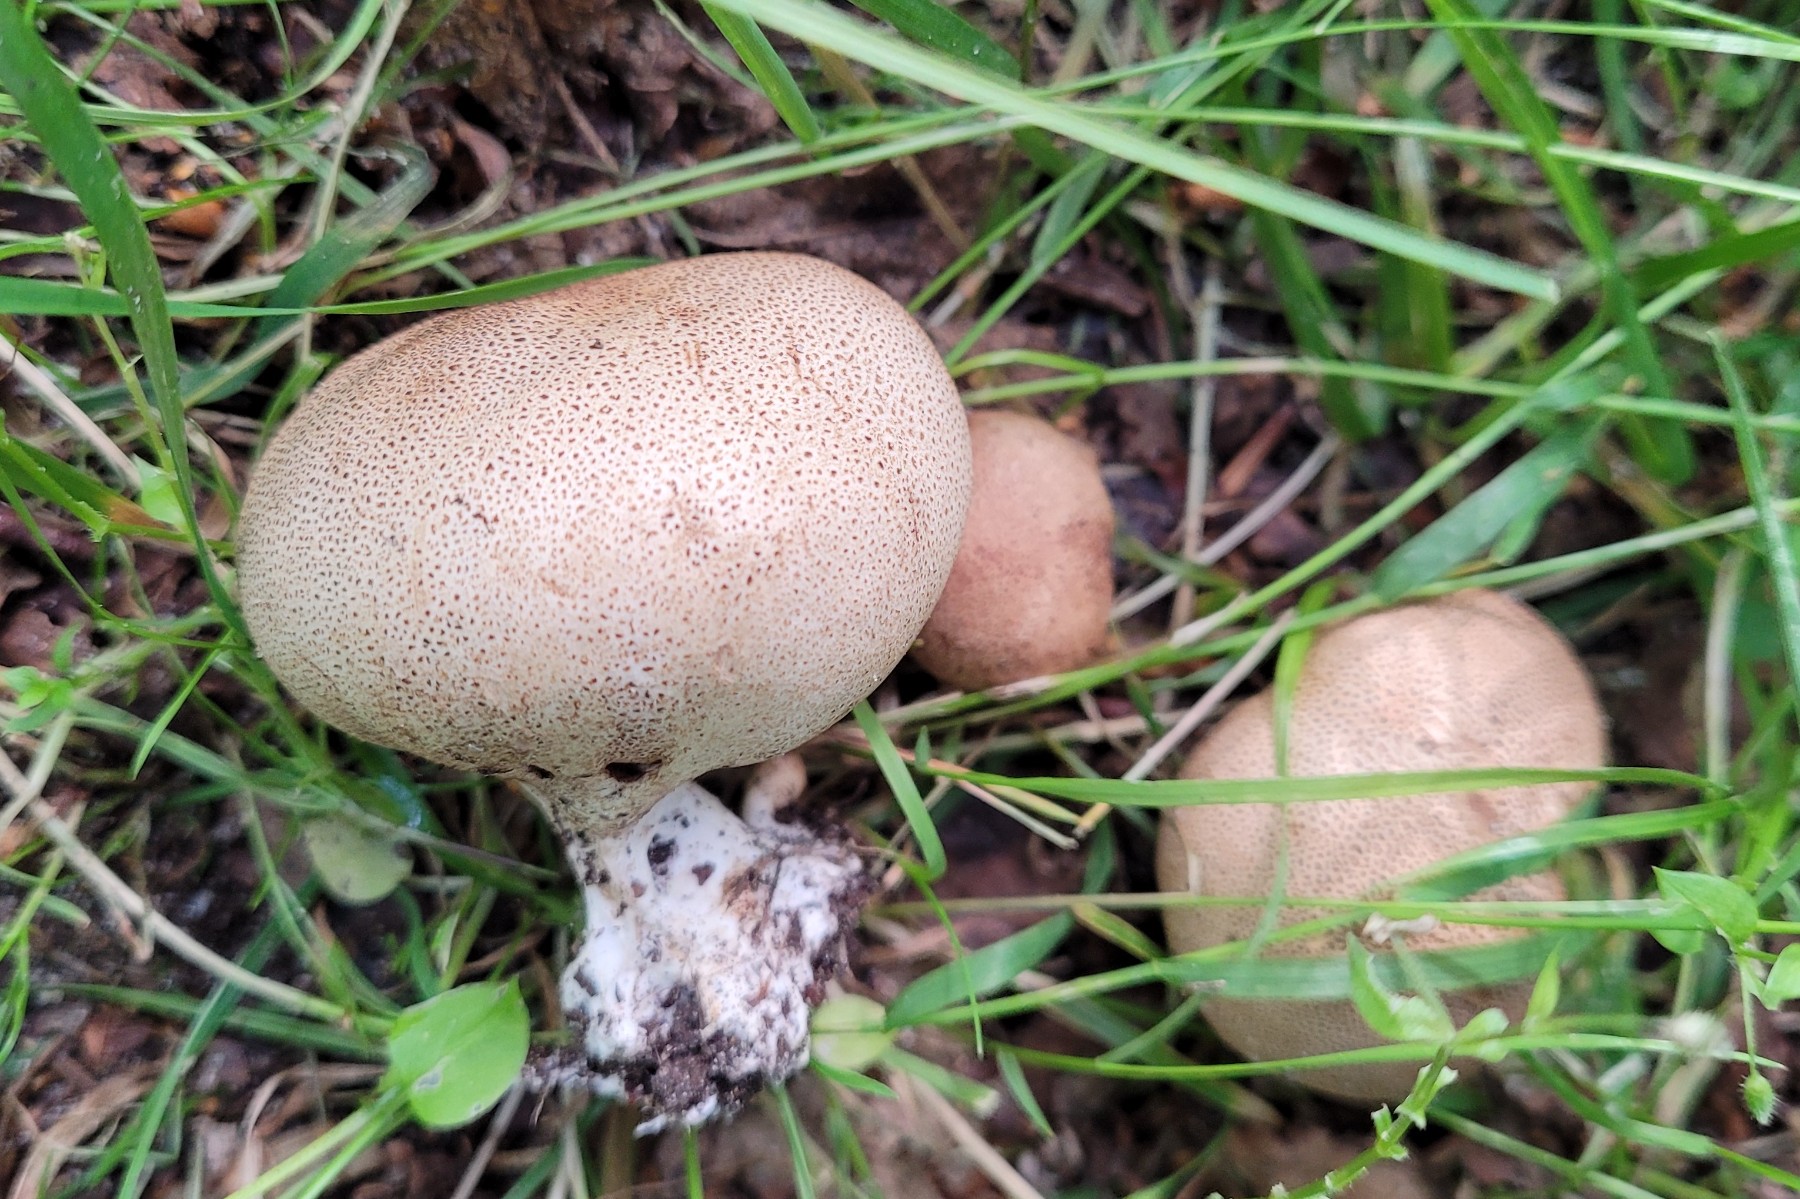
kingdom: Fungi
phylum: Basidiomycota
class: Agaricomycetes
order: Boletales
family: Sclerodermataceae
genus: Scleroderma
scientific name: Scleroderma areolatum
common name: plettet bruskbold
